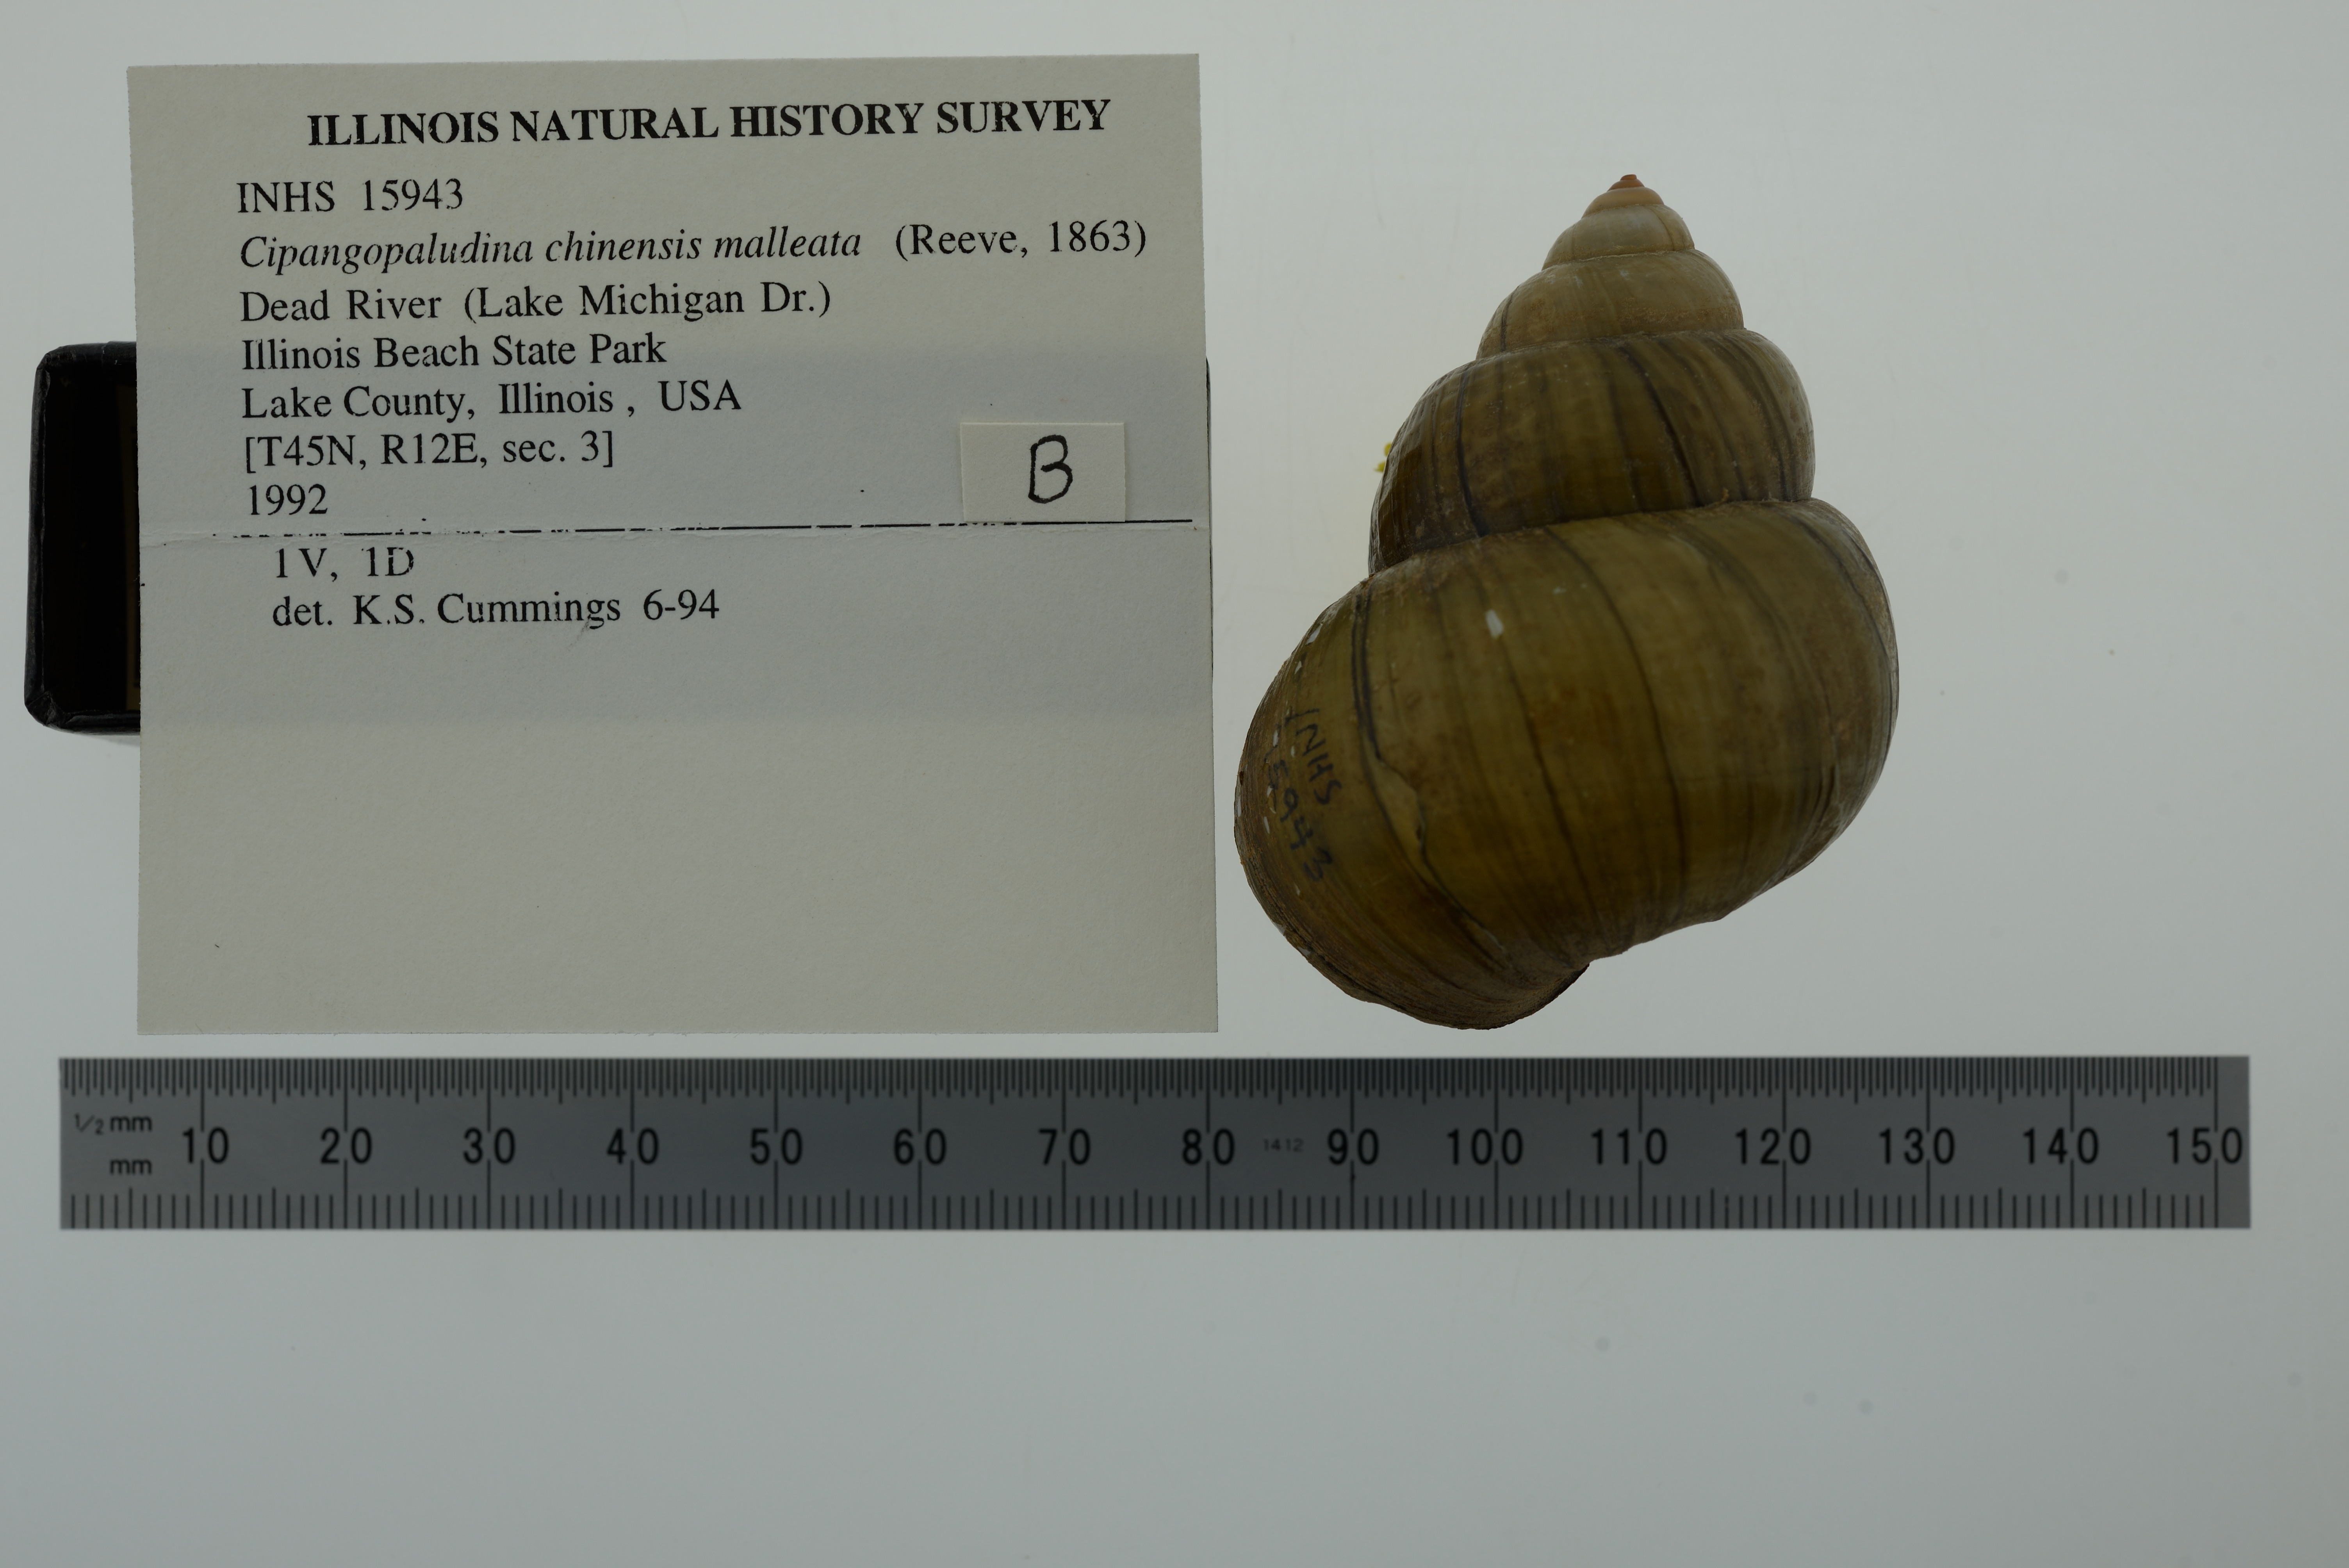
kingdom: Animalia
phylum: Mollusca
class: Gastropoda
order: Architaenioglossa
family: Viviparidae
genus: Cipangopaludina
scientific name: Cipangopaludina chinensis
